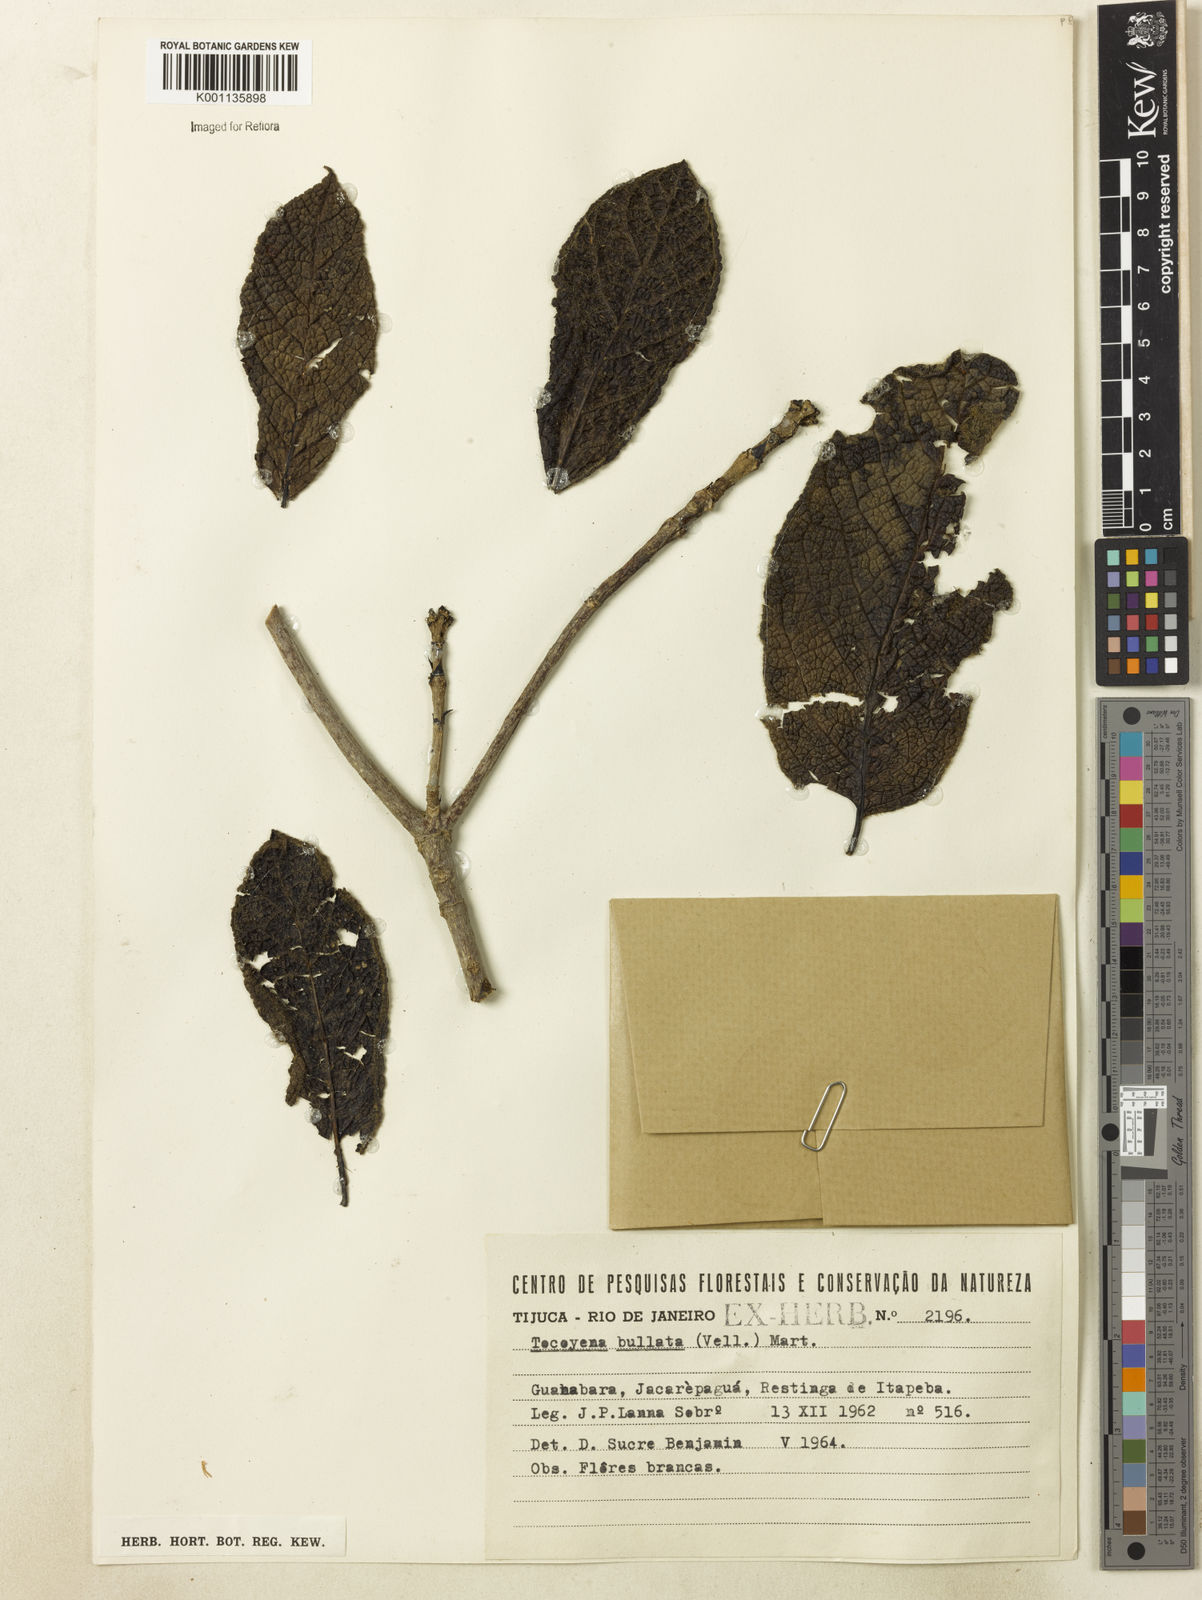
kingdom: Plantae
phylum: Tracheophyta
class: Magnoliopsida
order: Gentianales
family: Rubiaceae
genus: Tocoyena
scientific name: Tocoyena bullata
